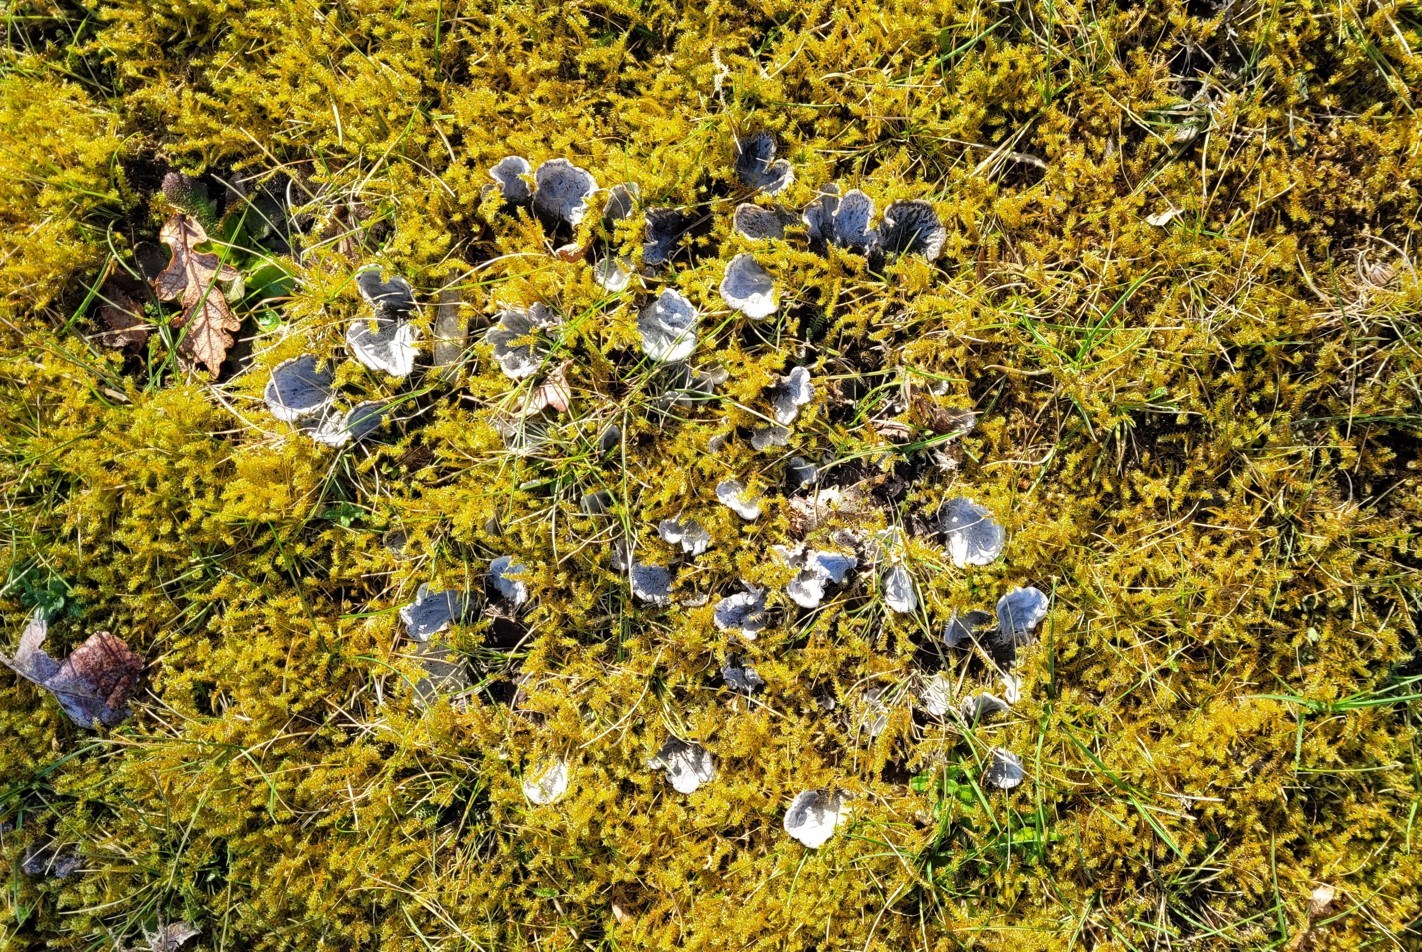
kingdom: Fungi
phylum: Ascomycota
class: Lecanoromycetes
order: Peltigerales
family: Peltigeraceae
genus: Peltigera
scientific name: Peltigera membranacea
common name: tynd skjoldlav
